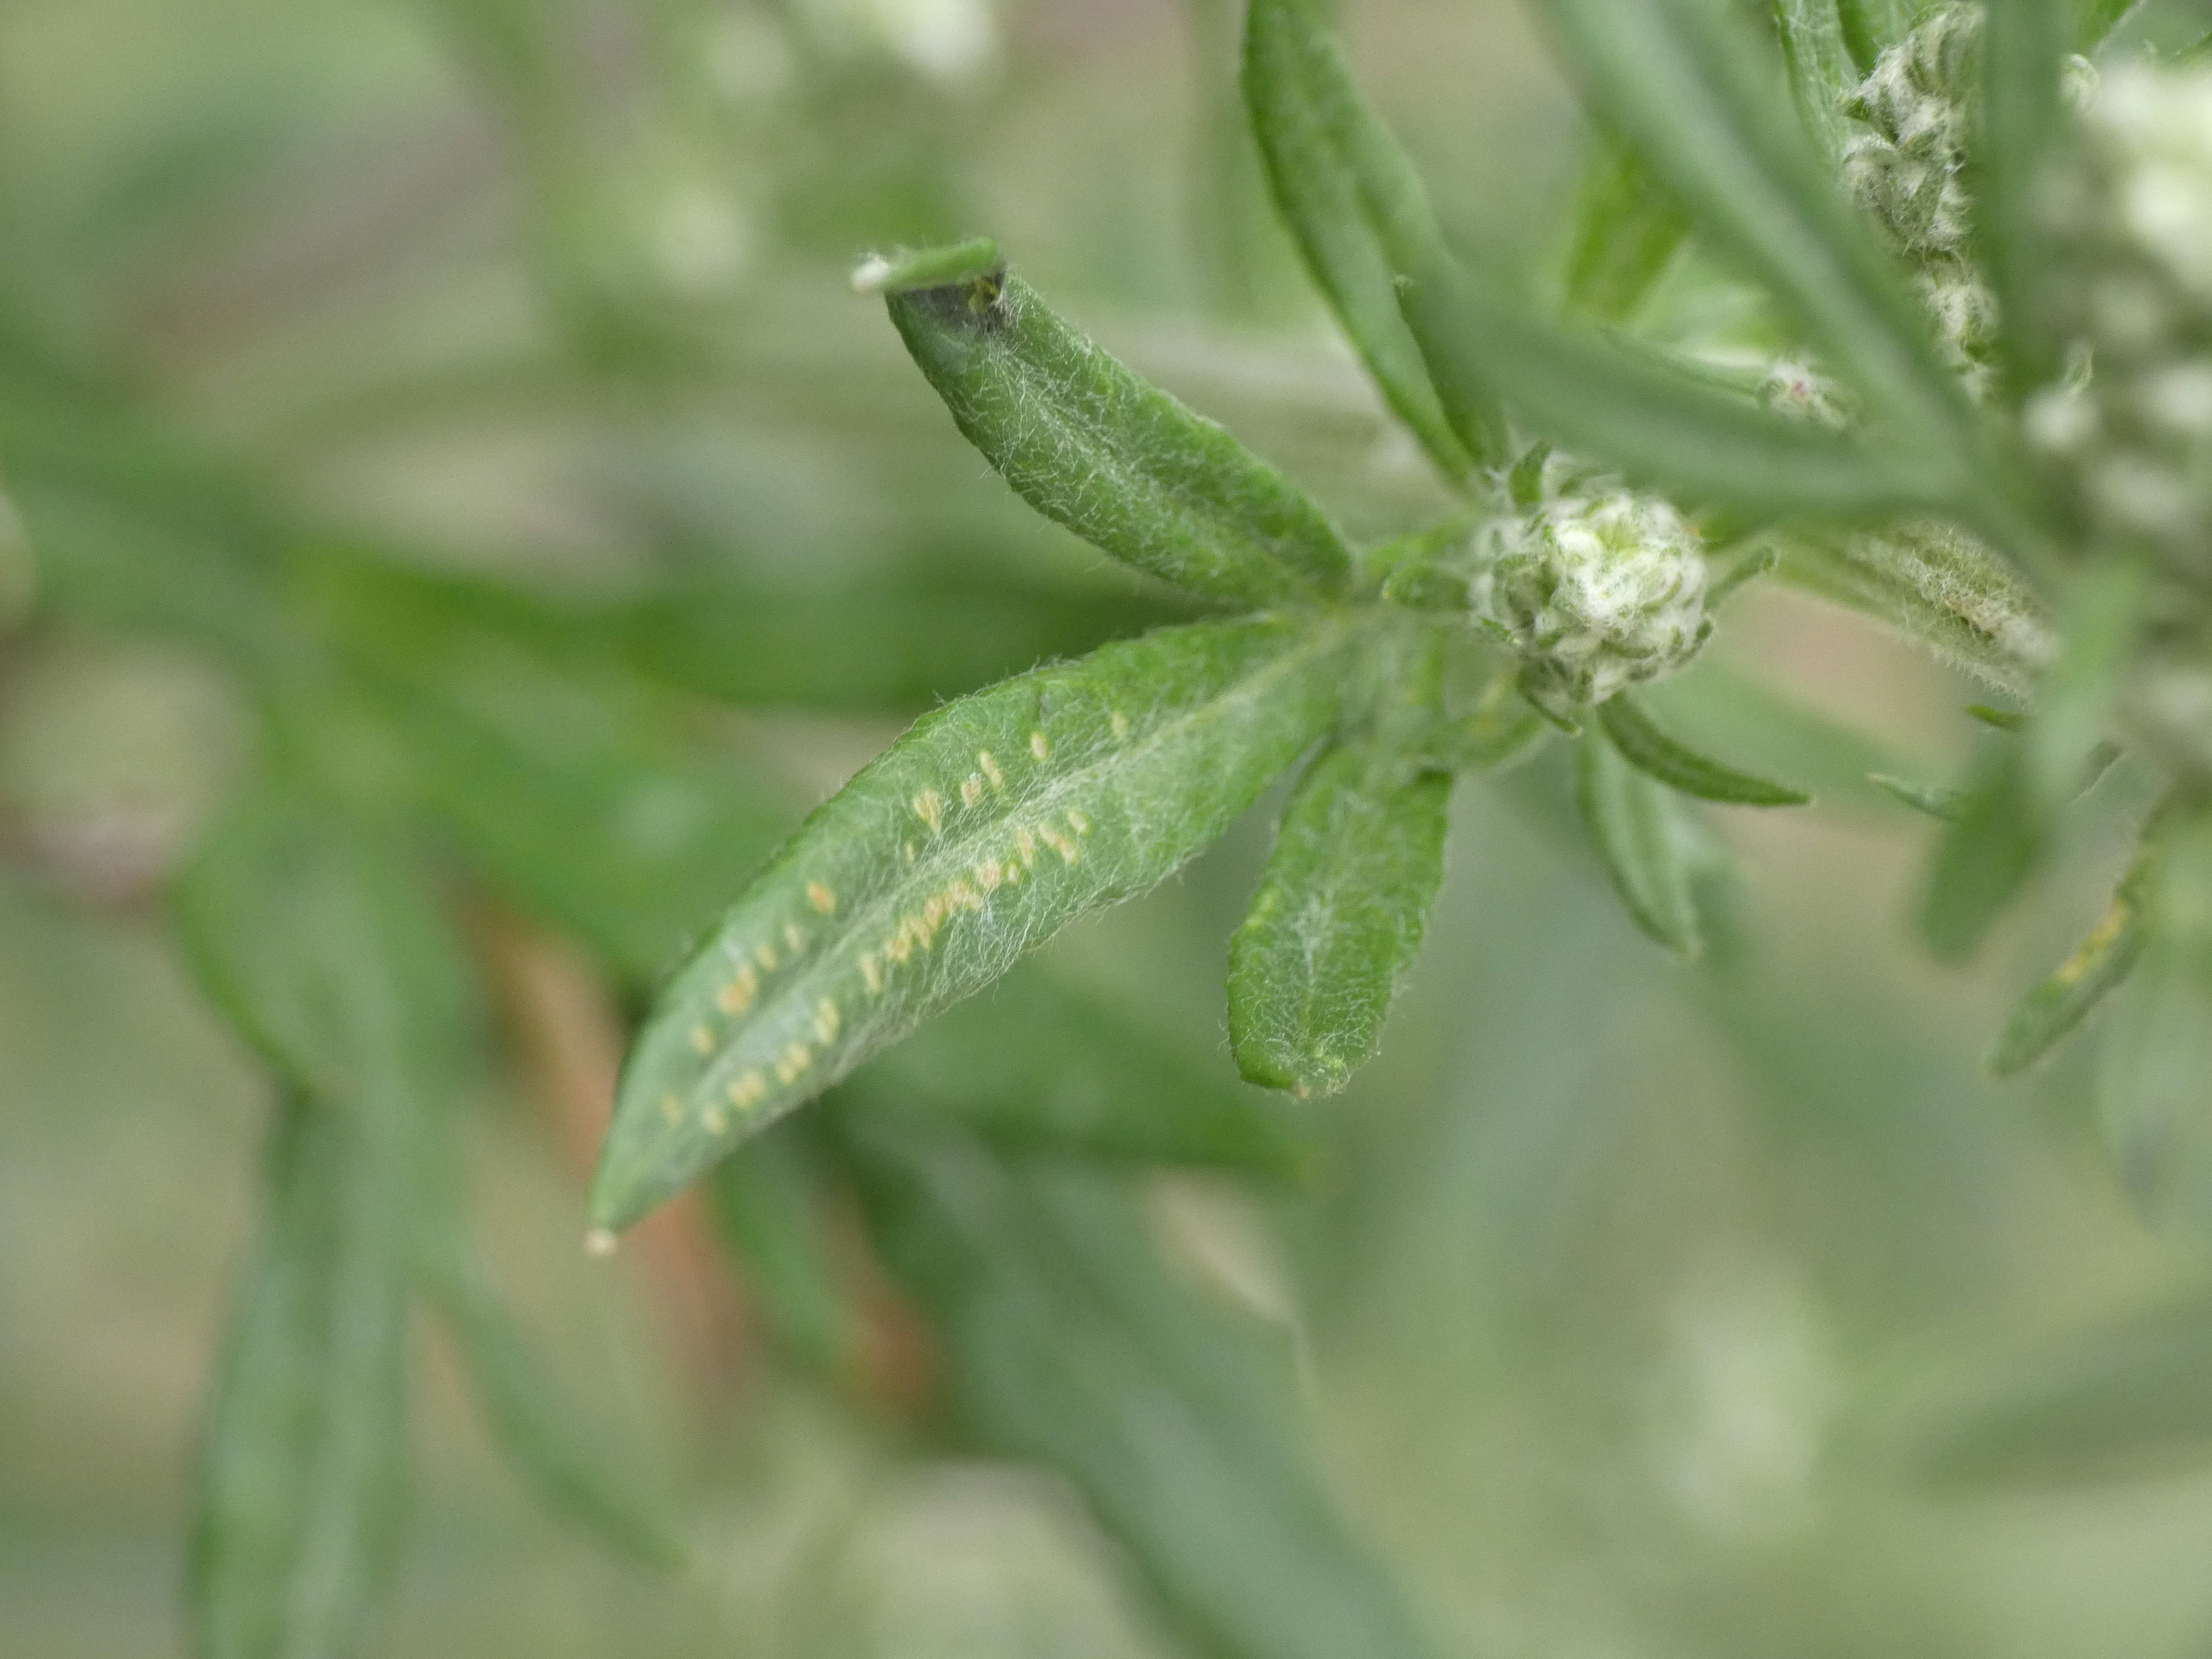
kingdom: Plantae
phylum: Tracheophyta
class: Magnoliopsida
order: Asterales
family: Asteraceae
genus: Artemisia
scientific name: Artemisia vulgaris
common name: Grå-bynke
